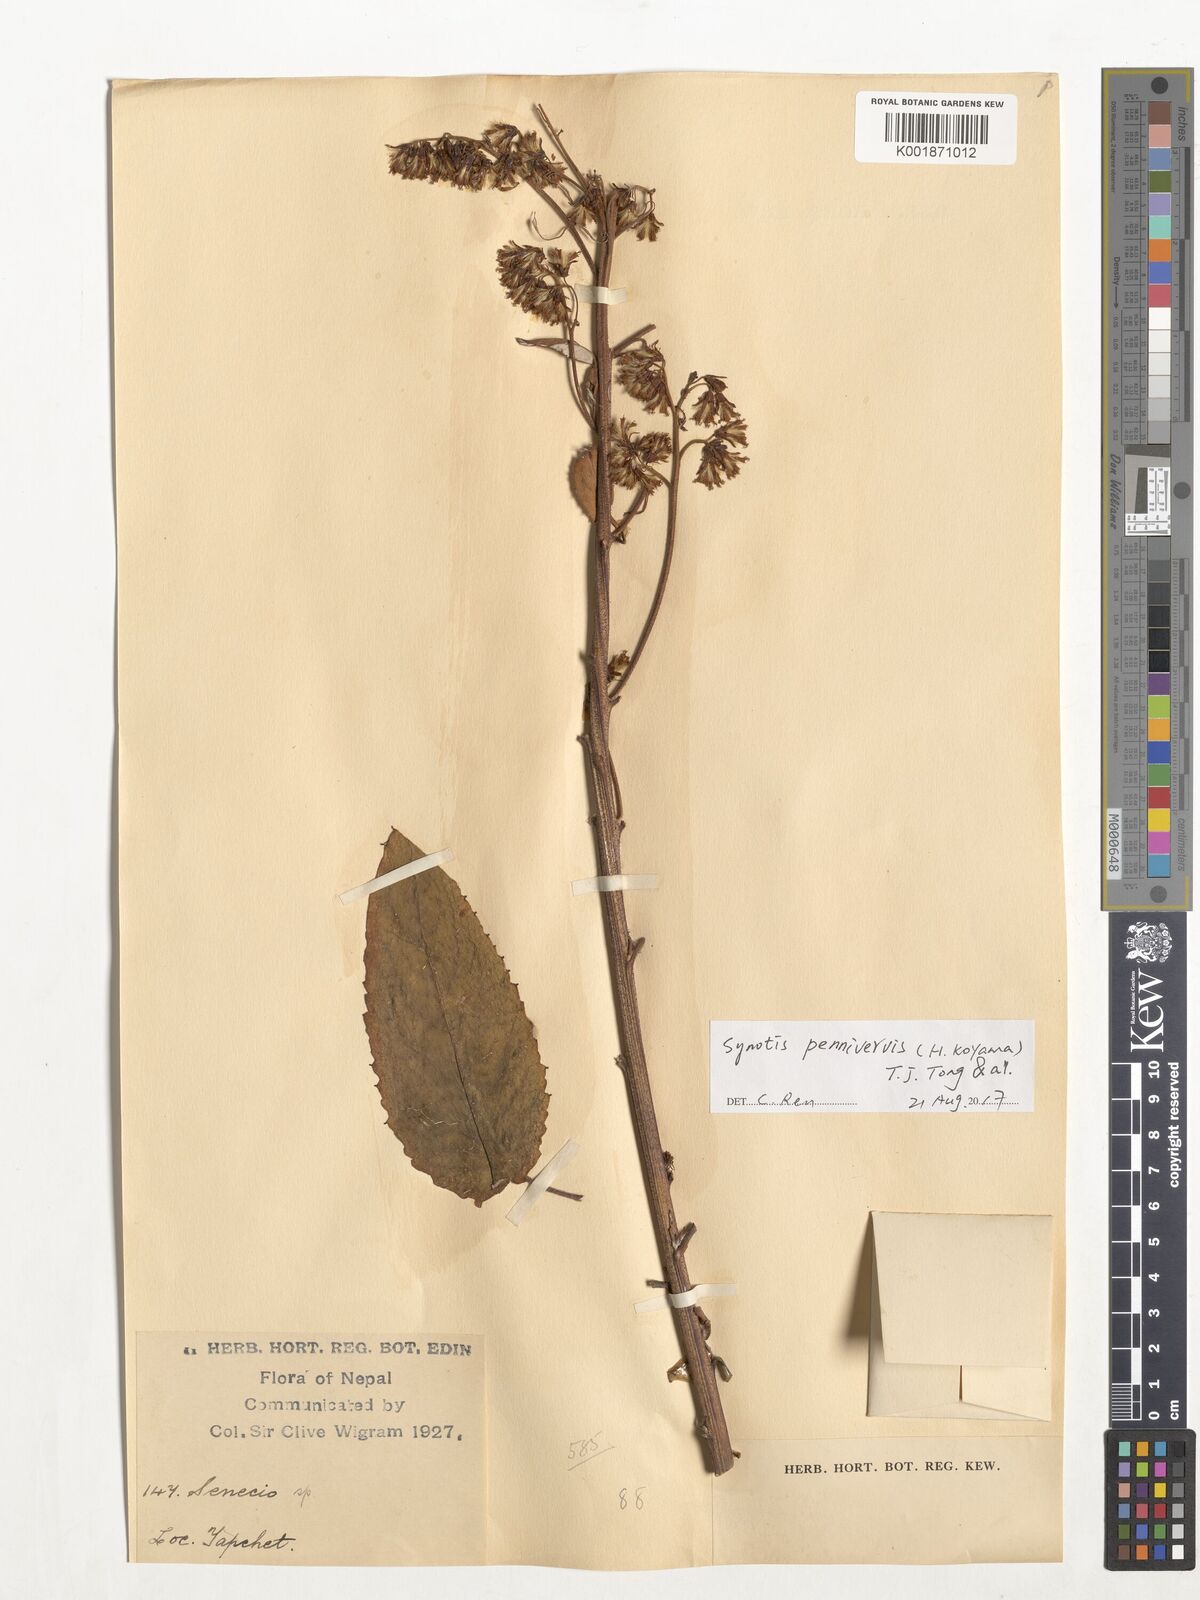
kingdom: Plantae
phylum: Tracheophyta
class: Magnoliopsida
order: Asterales
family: Asteraceae
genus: Synotis
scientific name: Synotis penninervis
